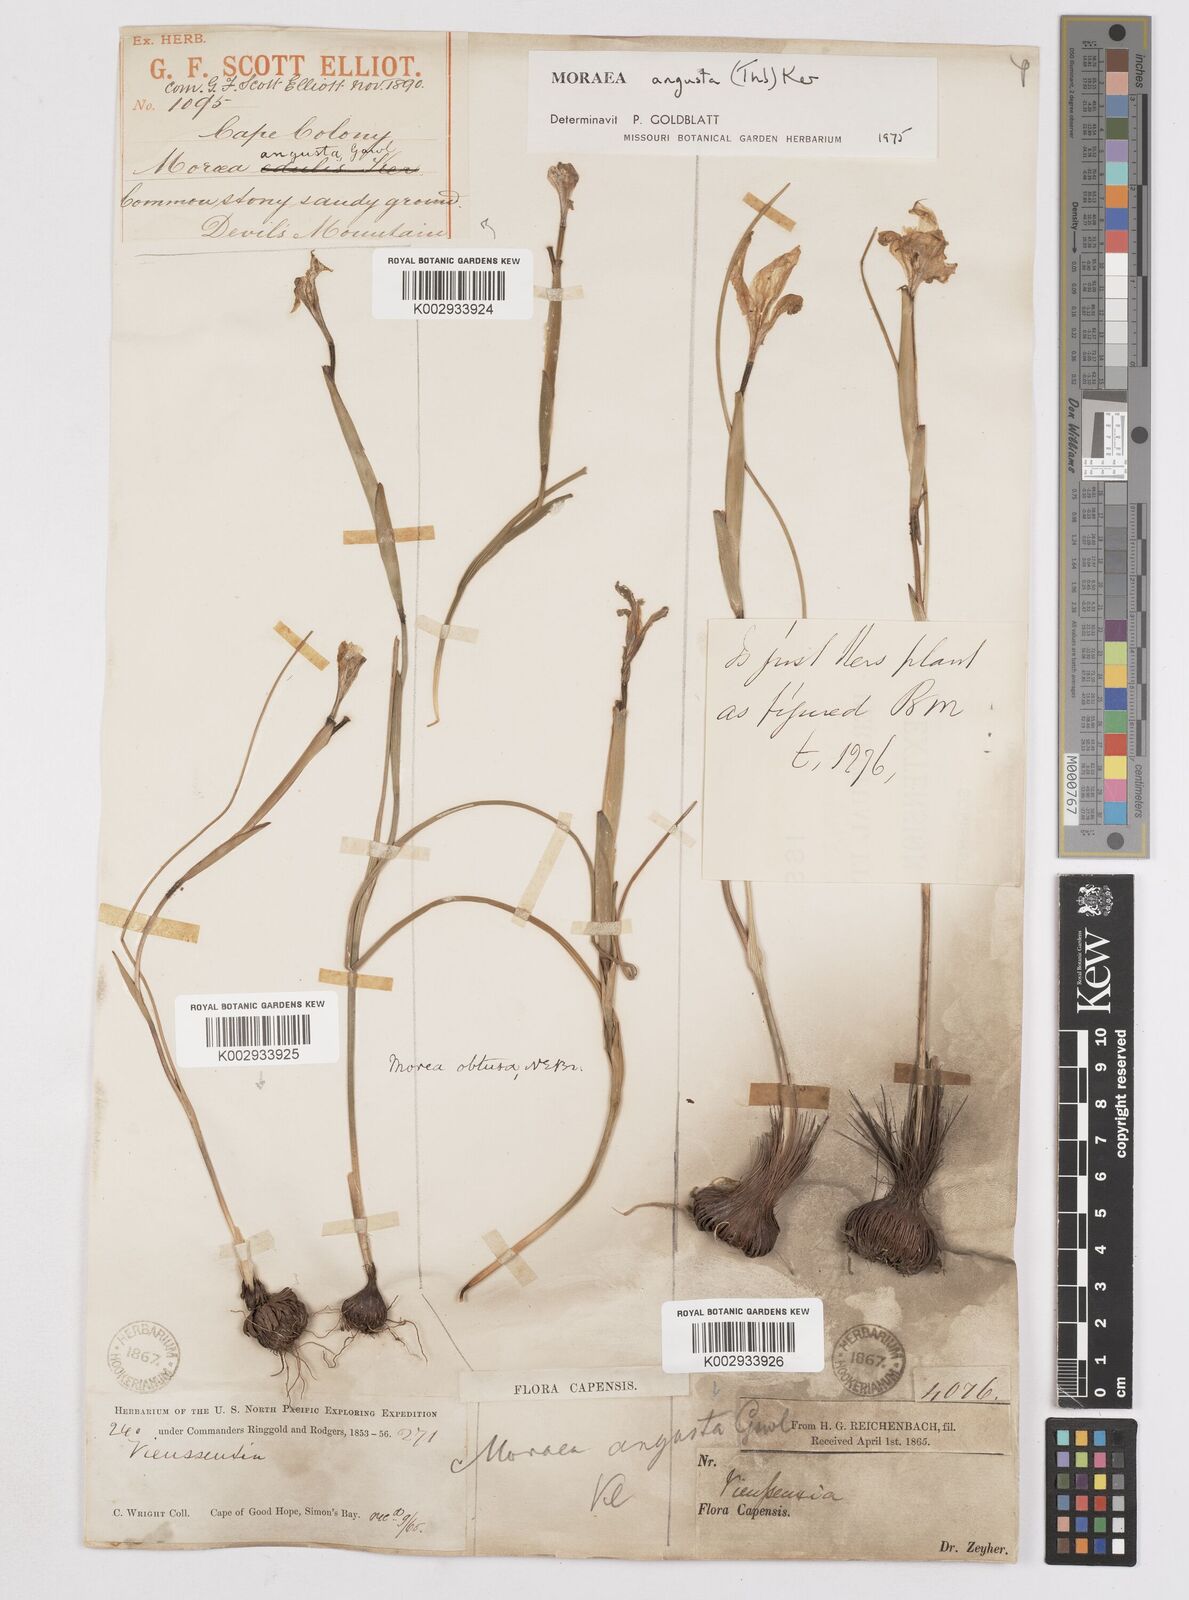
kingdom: Plantae
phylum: Tracheophyta
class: Liliopsida
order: Asparagales
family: Iridaceae
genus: Moraea
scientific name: Moraea angusta
